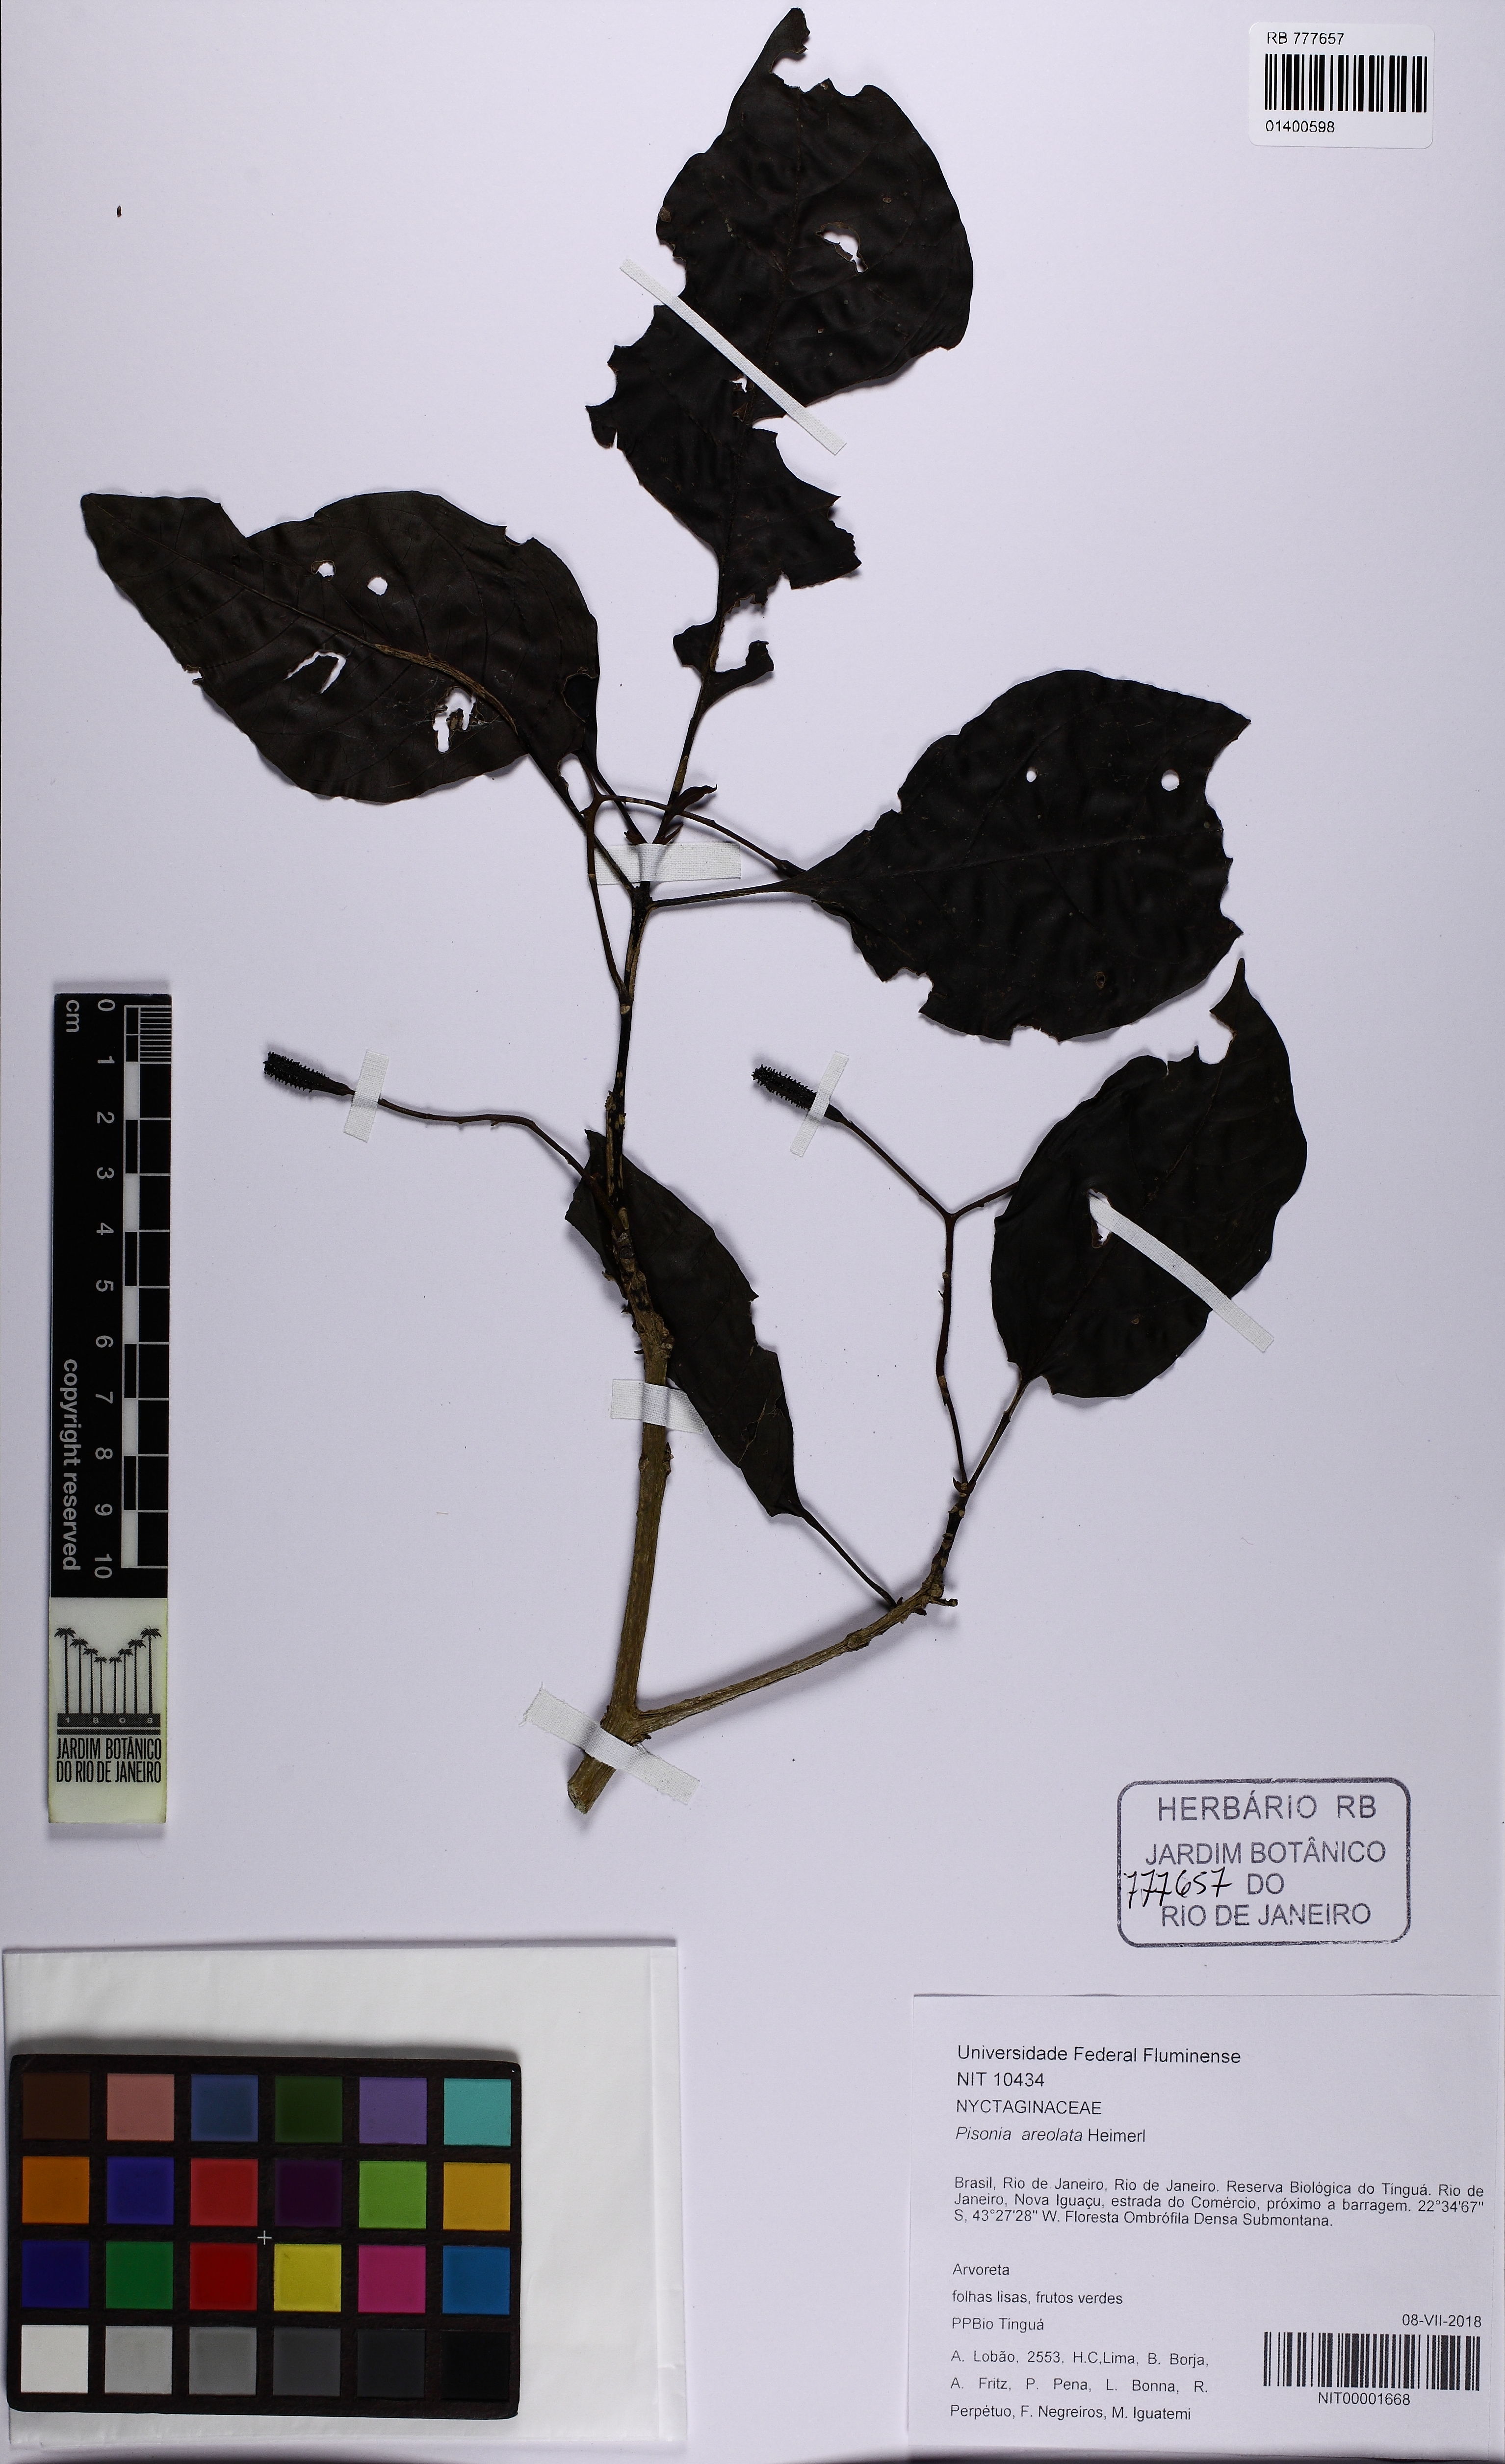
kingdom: Plantae
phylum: Tracheophyta
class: Magnoliopsida
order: Caryophyllales
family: Nyctaginaceae
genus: Pisonia
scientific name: Pisonia ambigua
